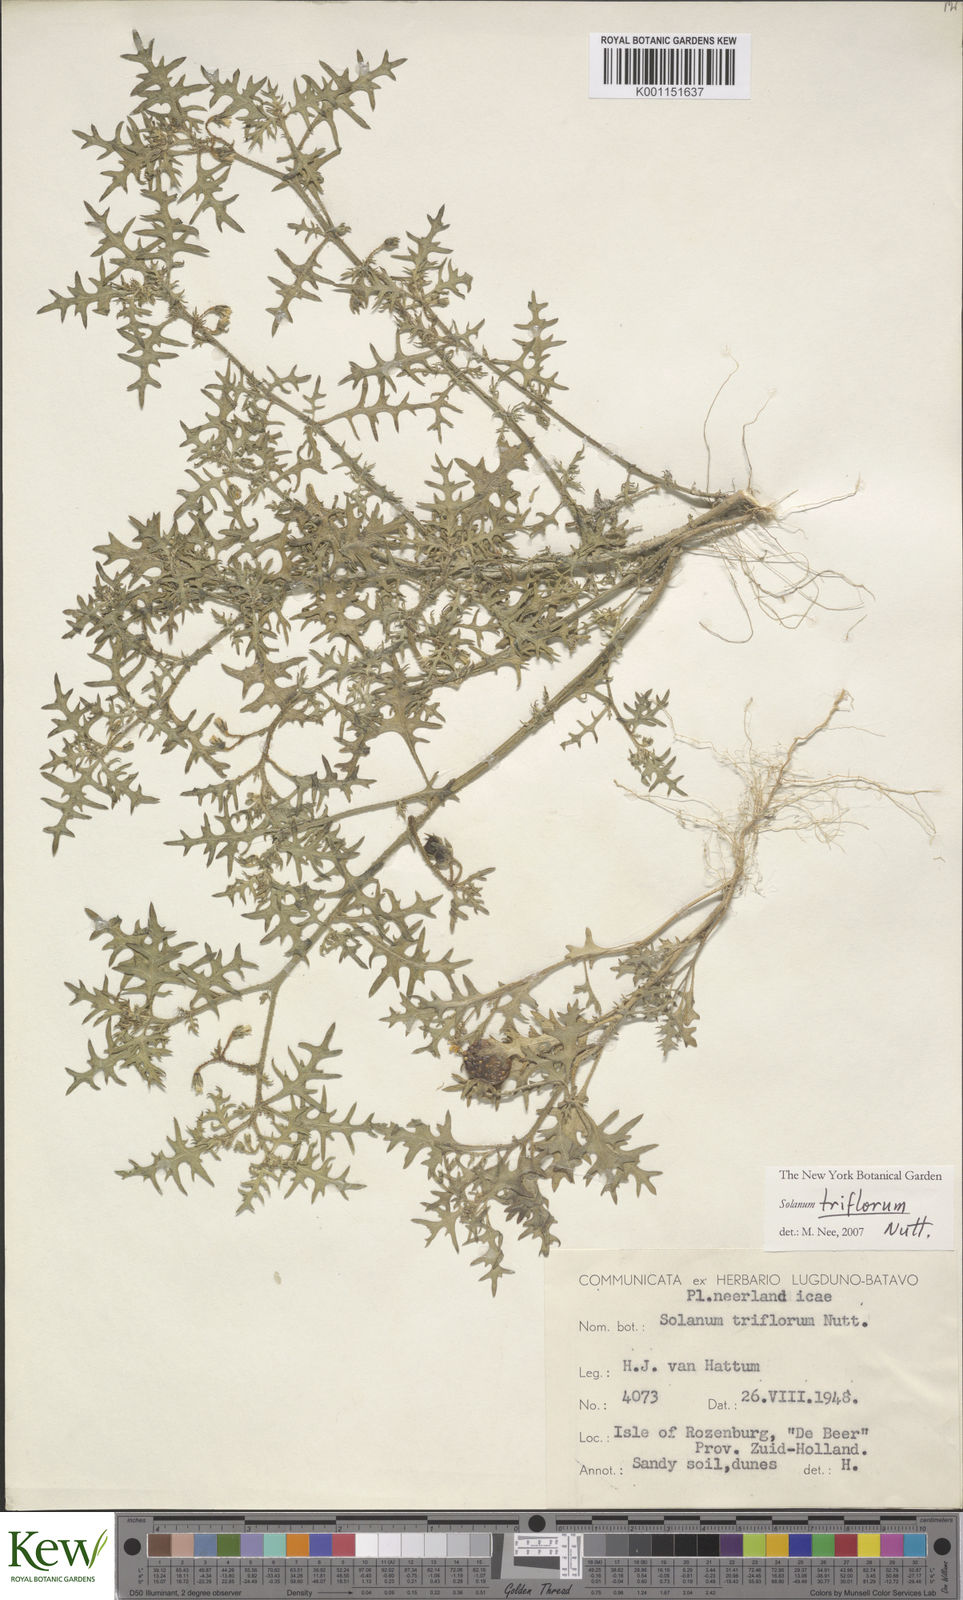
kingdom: Plantae
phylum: Tracheophyta
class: Magnoliopsida
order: Solanales
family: Solanaceae
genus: Solanum
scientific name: Solanum triflorum
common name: Small nightshade
